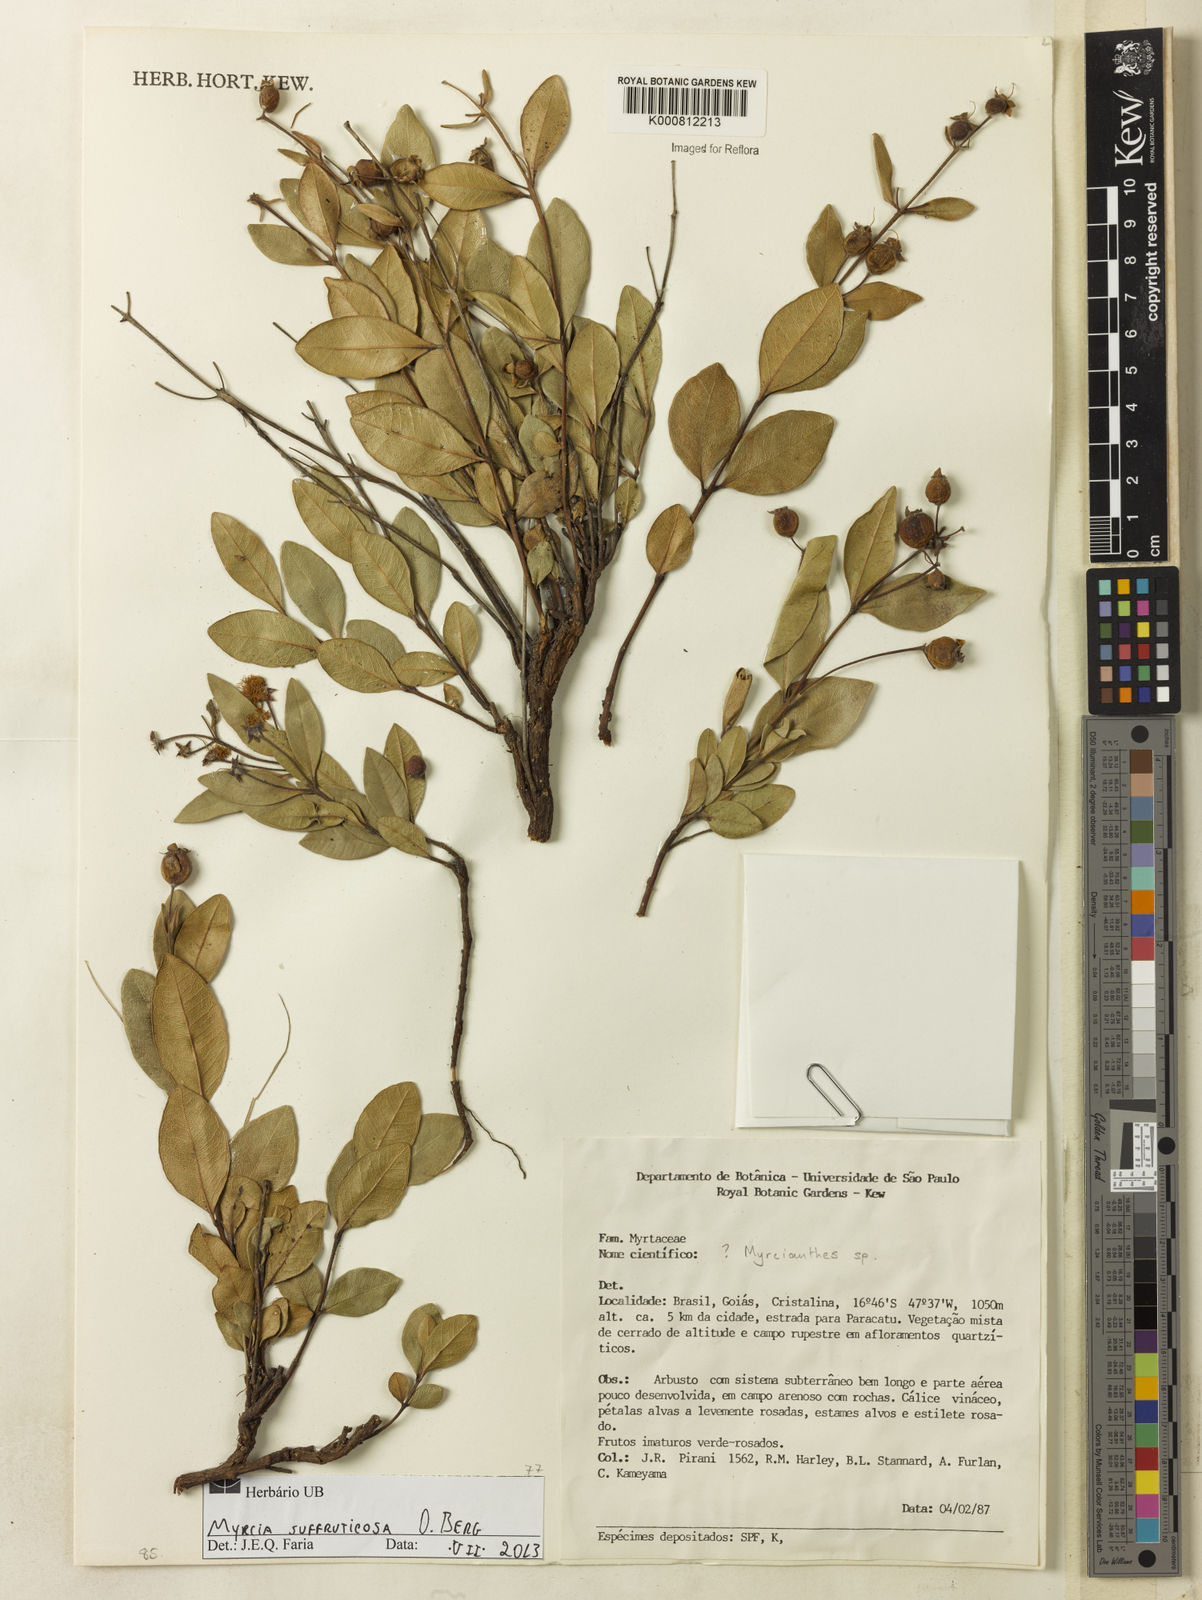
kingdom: Plantae
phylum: Tracheophyta
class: Magnoliopsida
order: Myrtales
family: Myrtaceae
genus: Myrcia
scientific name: Myrcia suffruticosa
